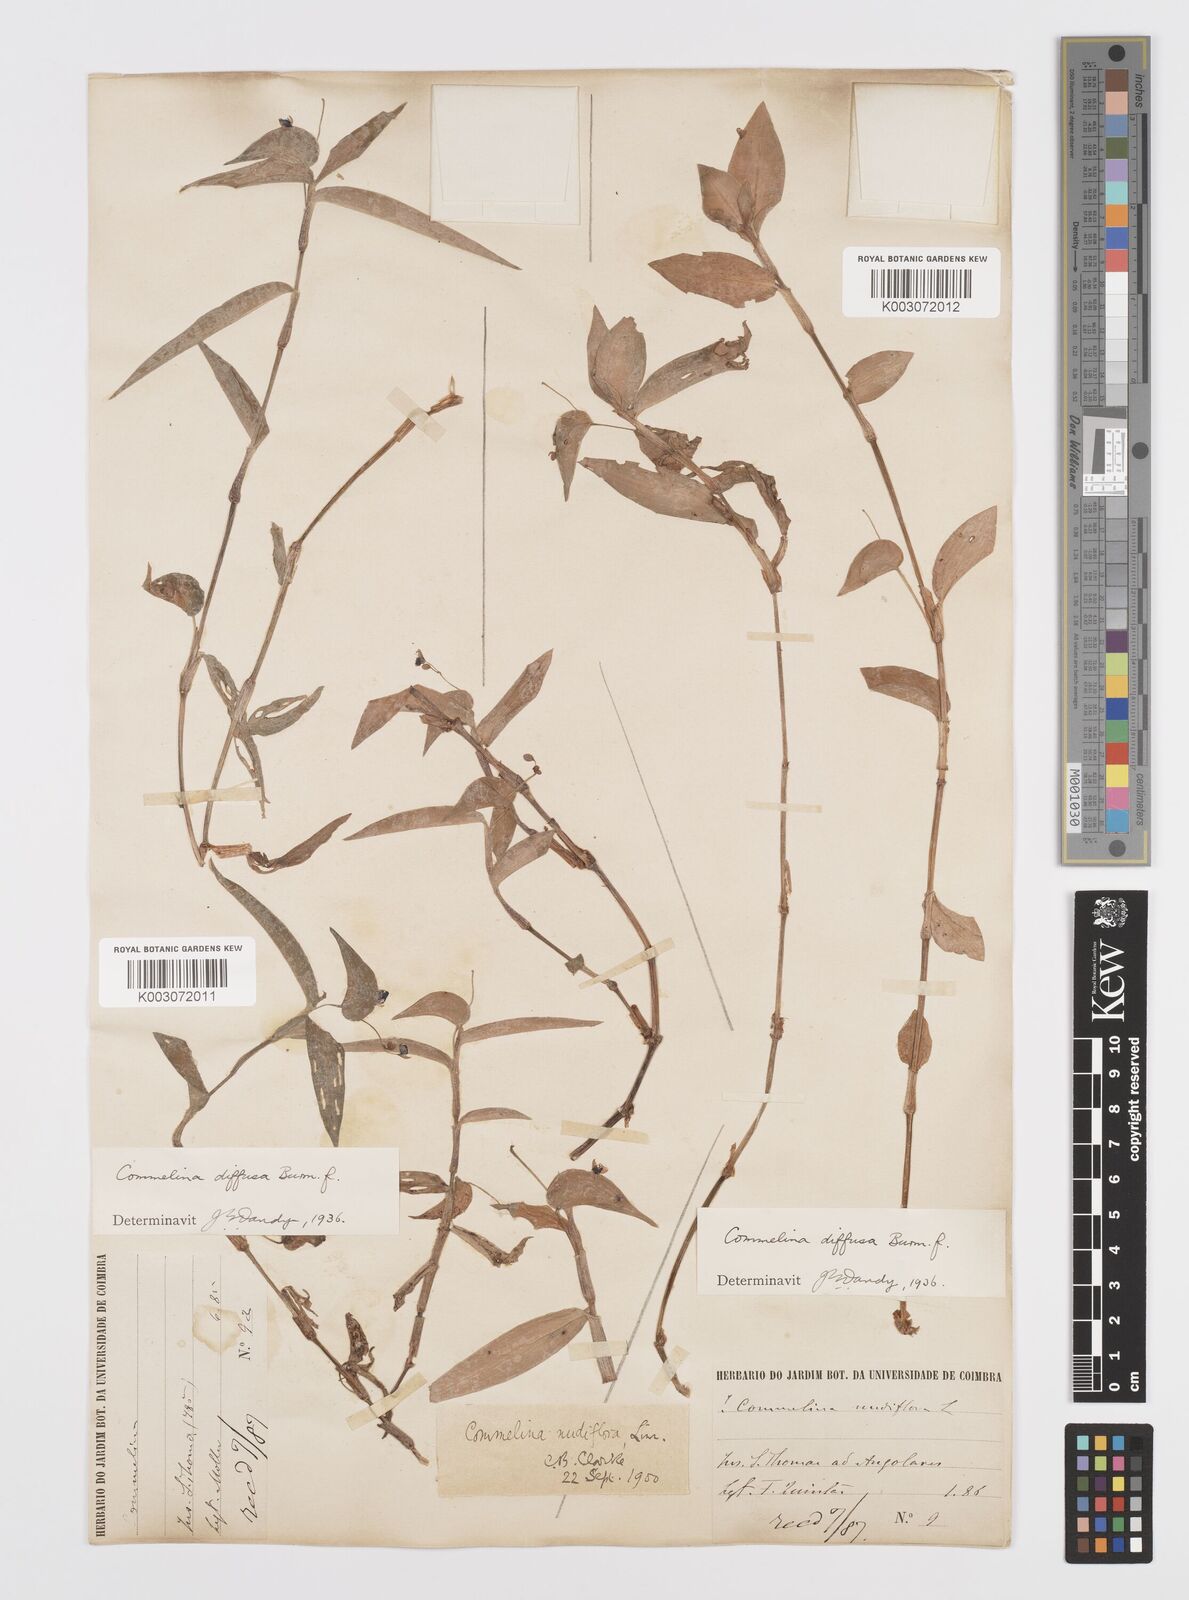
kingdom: Plantae
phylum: Tracheophyta
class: Liliopsida
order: Commelinales
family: Commelinaceae
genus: Commelina
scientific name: Commelina diffusa
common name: Climbing dayflower
